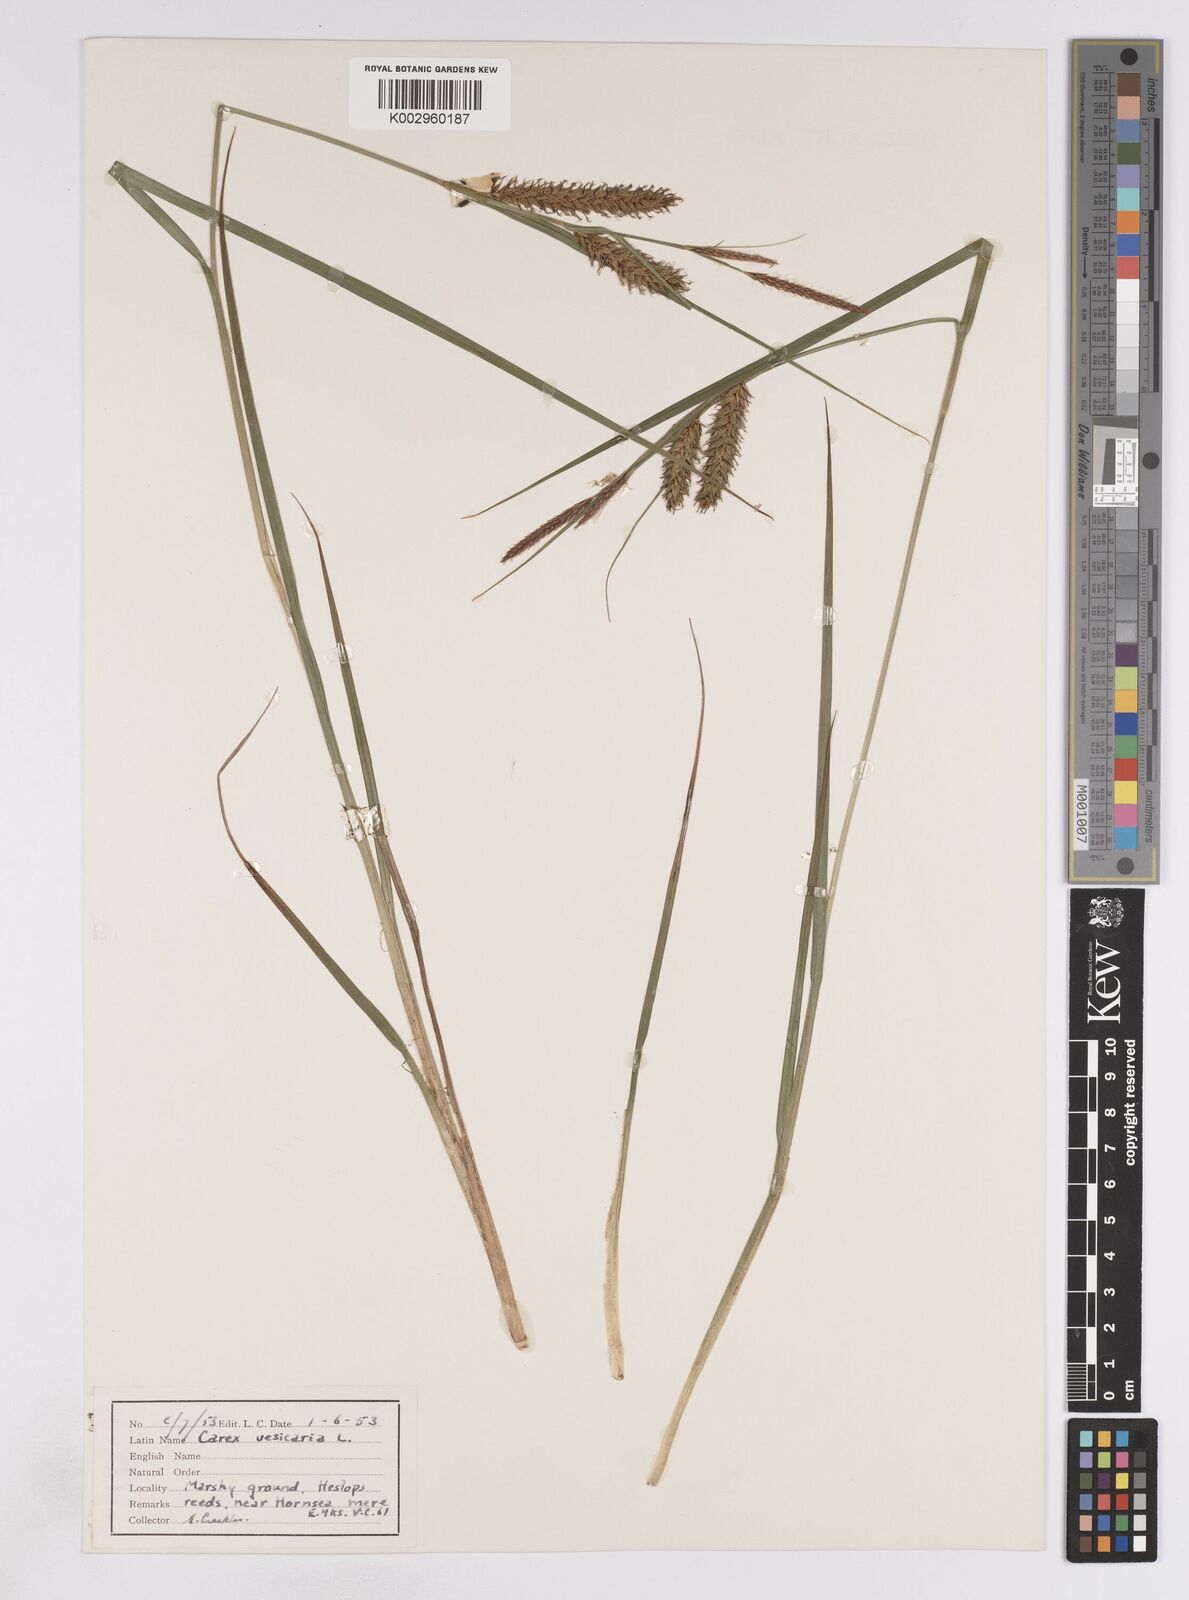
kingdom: Plantae
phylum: Tracheophyta
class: Liliopsida
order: Poales
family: Cyperaceae
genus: Carex
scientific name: Carex vesicaria
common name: Bladder-sedge
